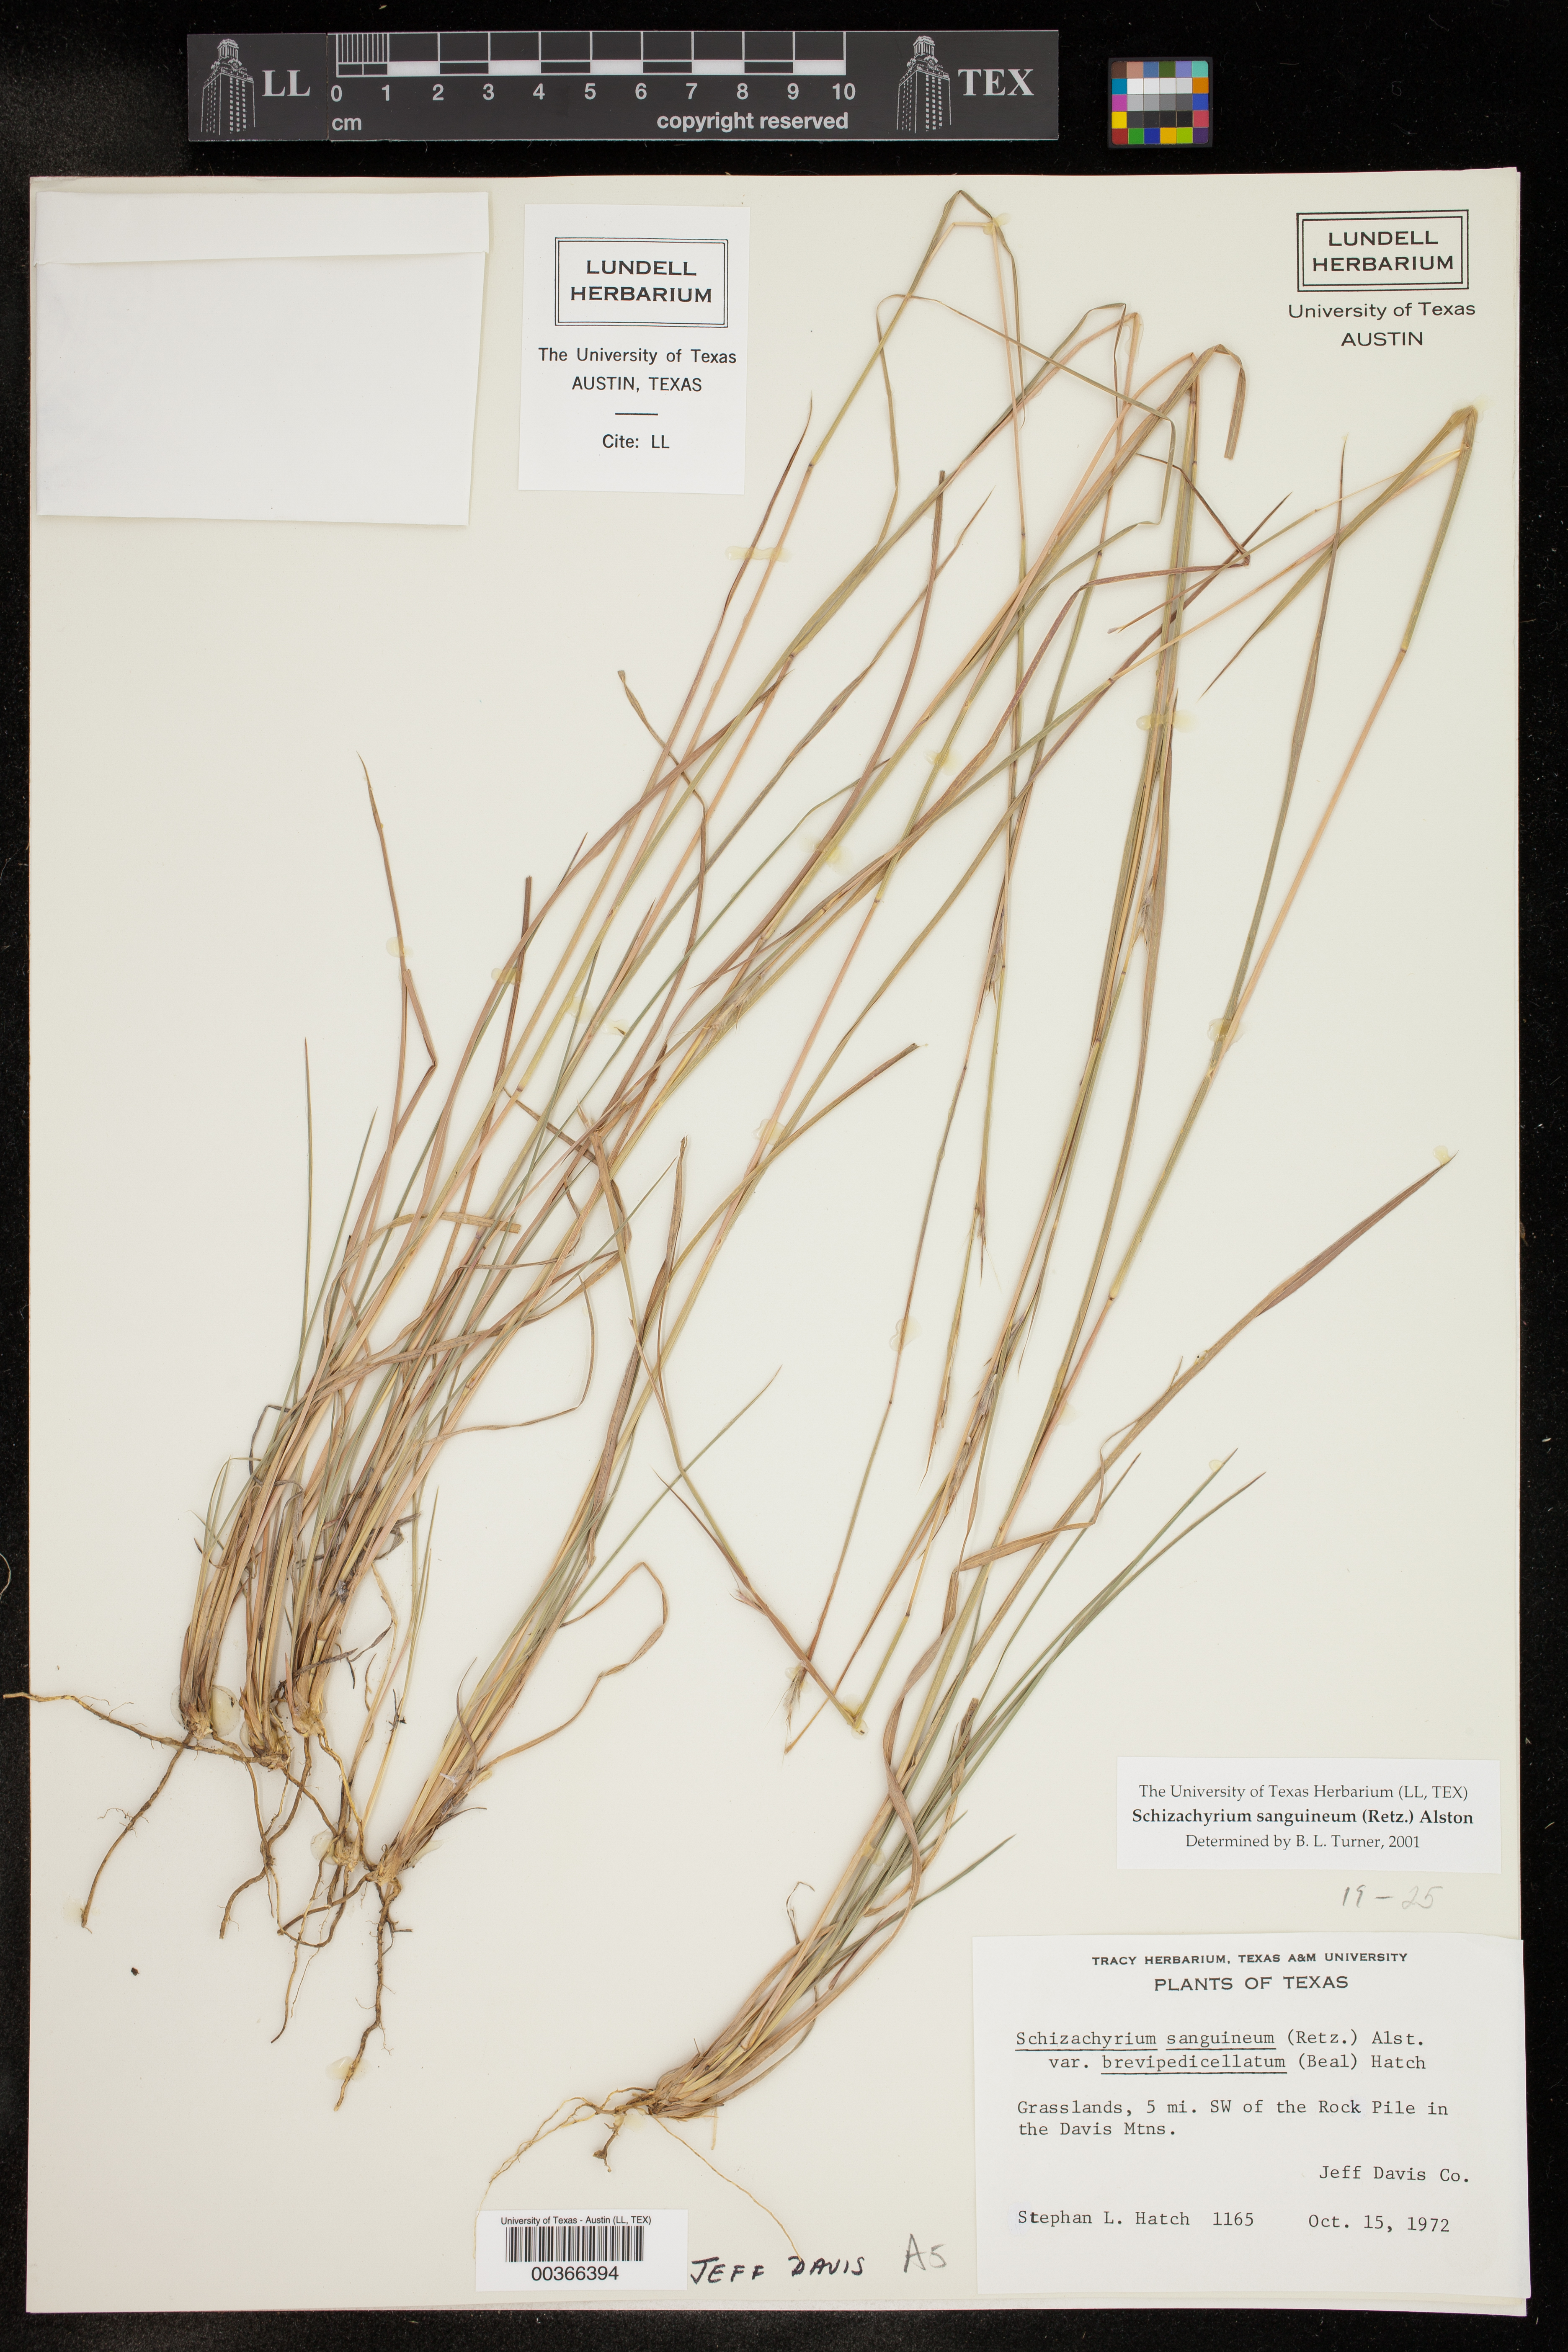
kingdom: Plantae
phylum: Tracheophyta
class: Liliopsida
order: Poales
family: Poaceae
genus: Schizachyrium
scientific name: Schizachyrium sanguineum
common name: Crimson bluestem
